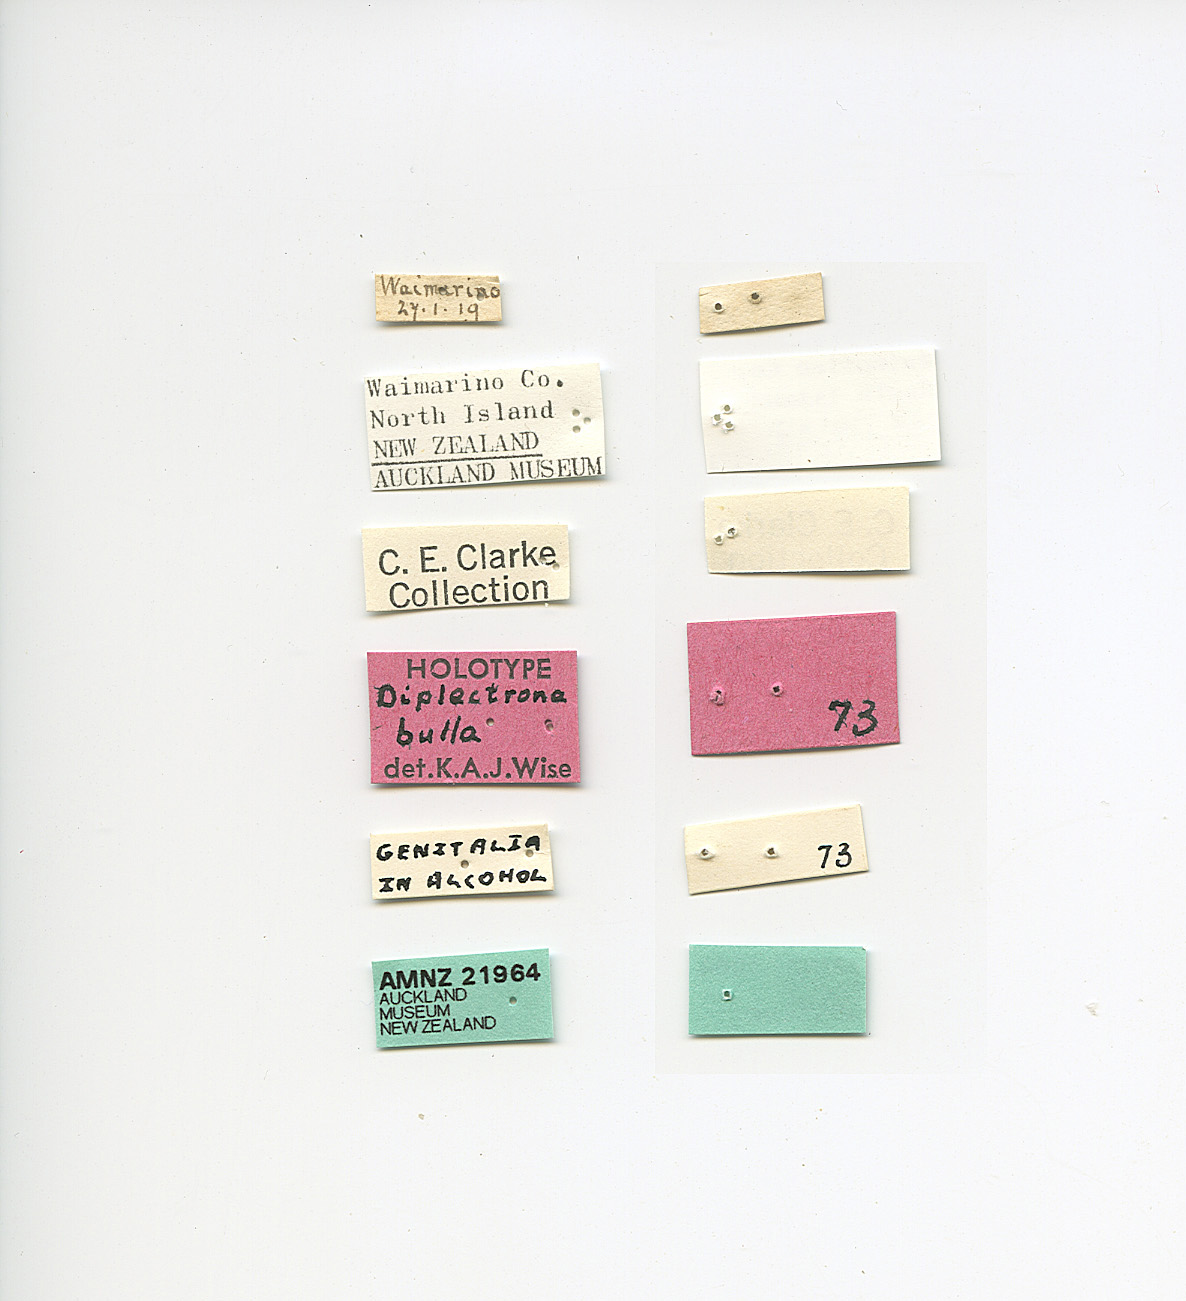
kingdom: Animalia
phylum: Arthropoda
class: Insecta
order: Trichoptera
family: Hydropsychidae
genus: Diplectrona
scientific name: Diplectrona bulla
